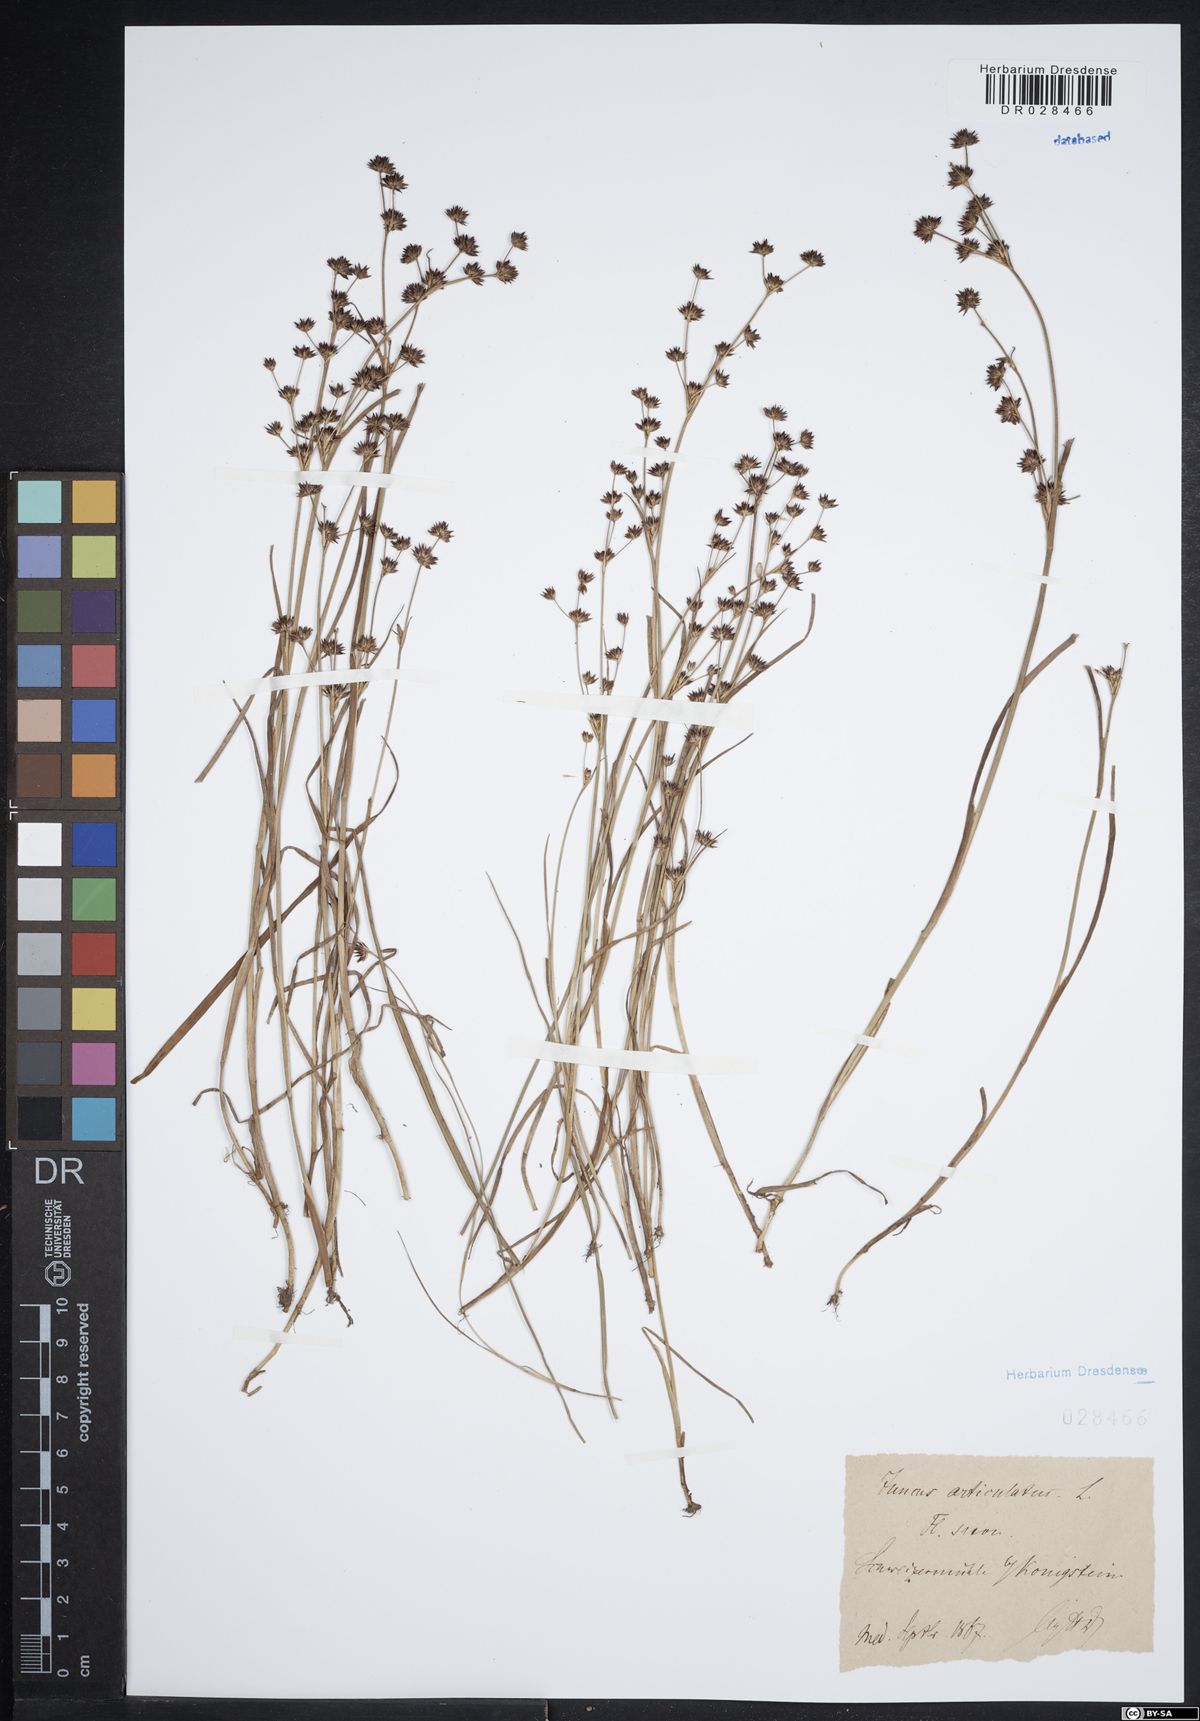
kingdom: Plantae
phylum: Tracheophyta
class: Liliopsida
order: Poales
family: Juncaceae
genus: Juncus
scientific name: Juncus articulatus
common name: Jointed rush
